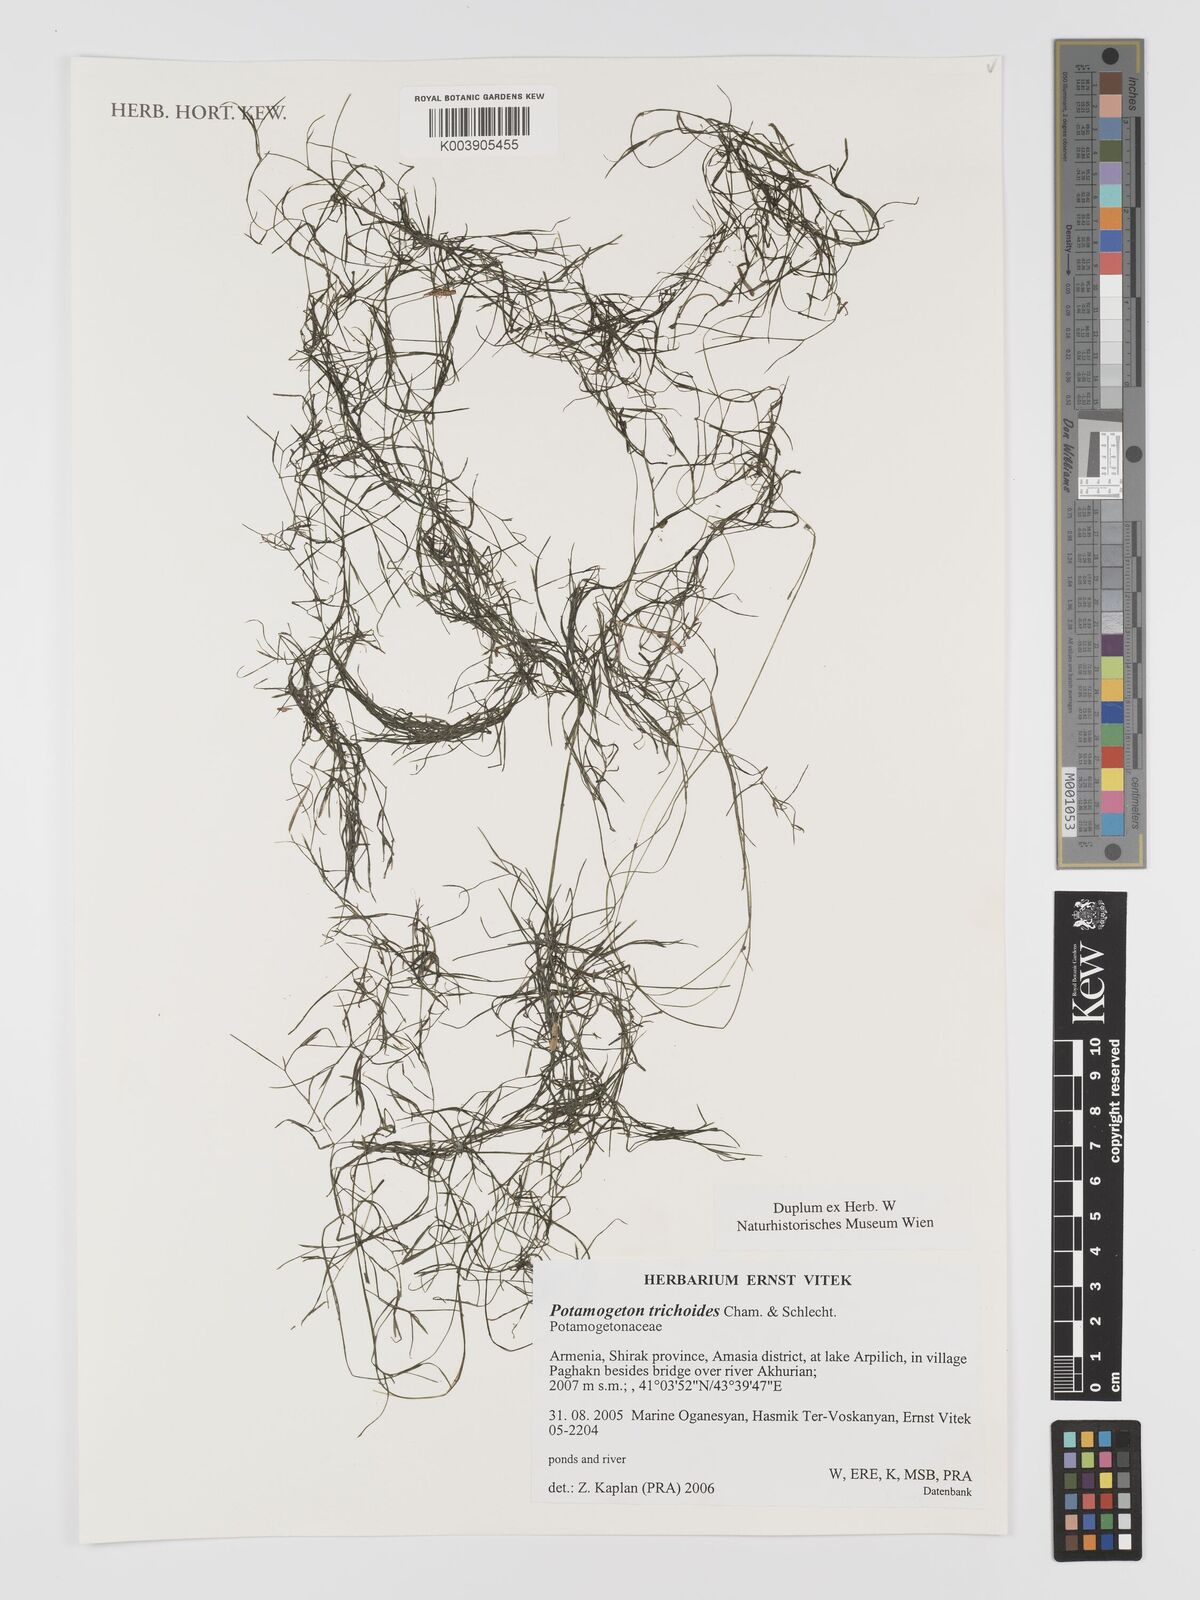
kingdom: Plantae
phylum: Tracheophyta
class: Liliopsida
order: Alismatales
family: Potamogetonaceae
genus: Potamogeton
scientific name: Potamogeton trichoides
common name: Hairlike pondweed
